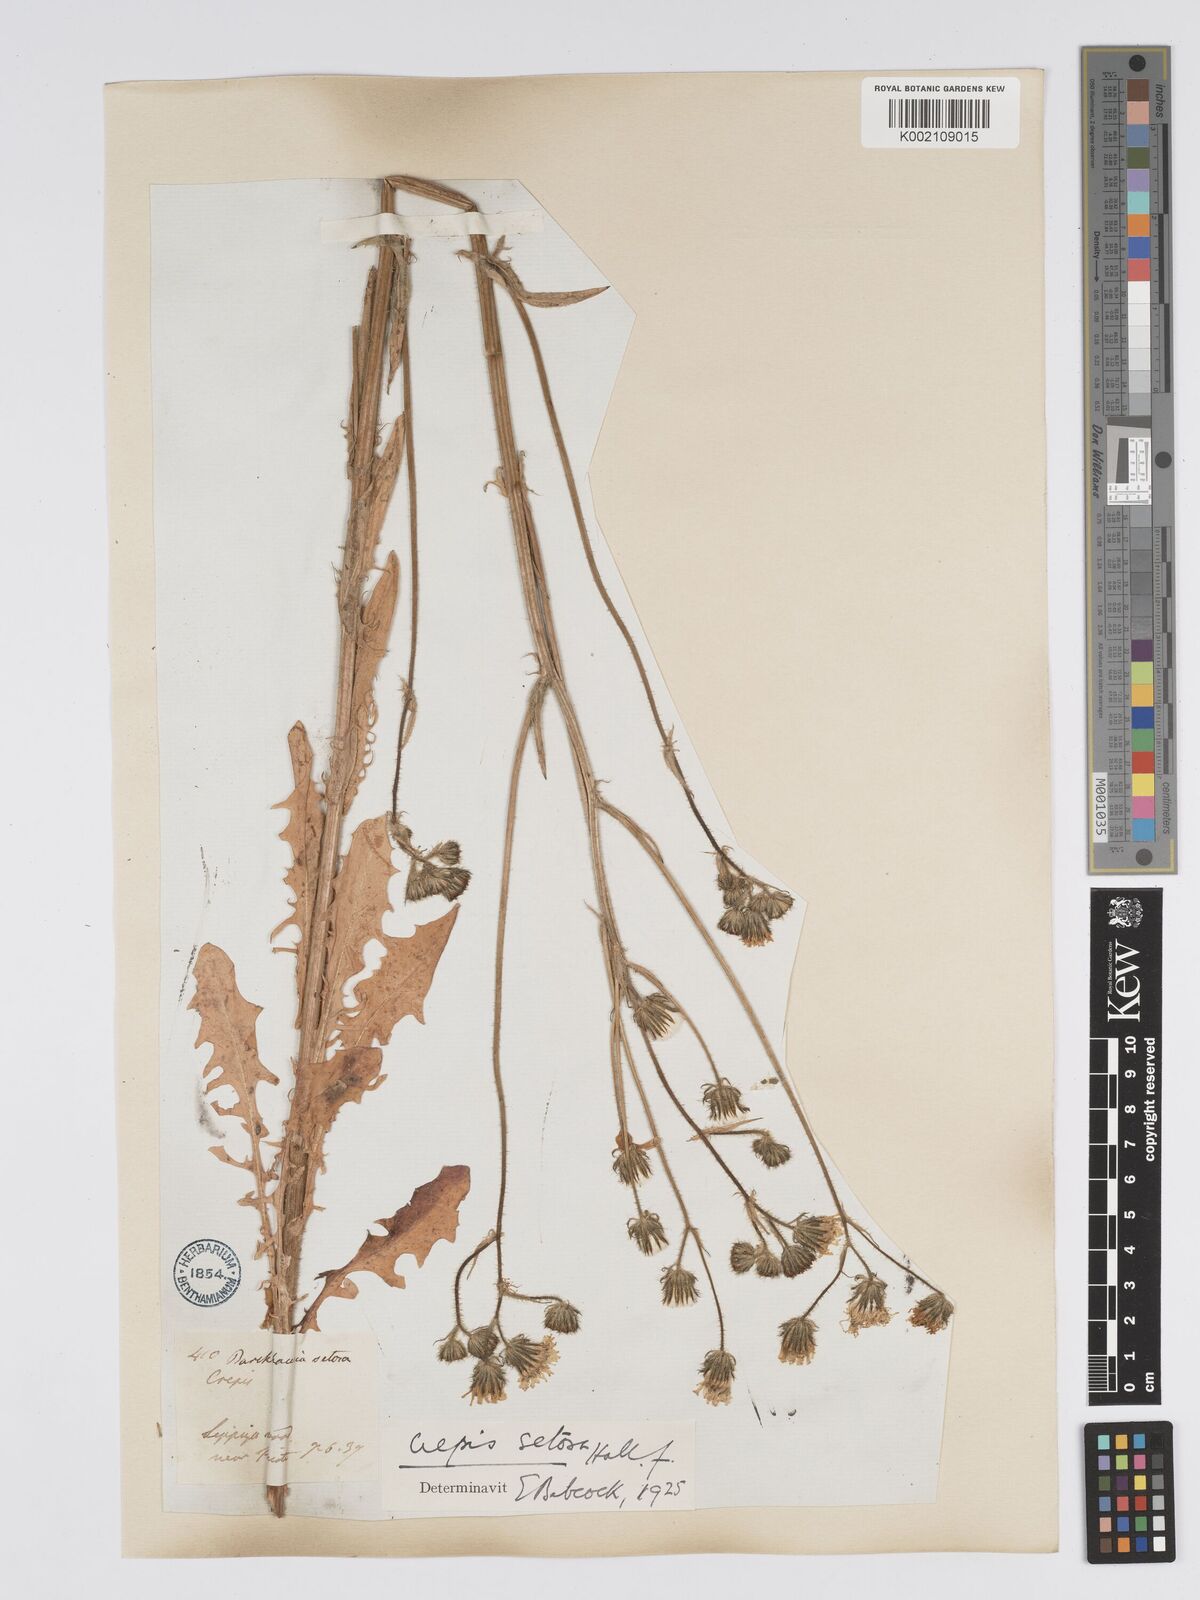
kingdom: Plantae
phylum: Tracheophyta
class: Magnoliopsida
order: Asterales
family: Asteraceae
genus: Crepis
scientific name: Crepis setosa
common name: Bristly hawk's-beard
